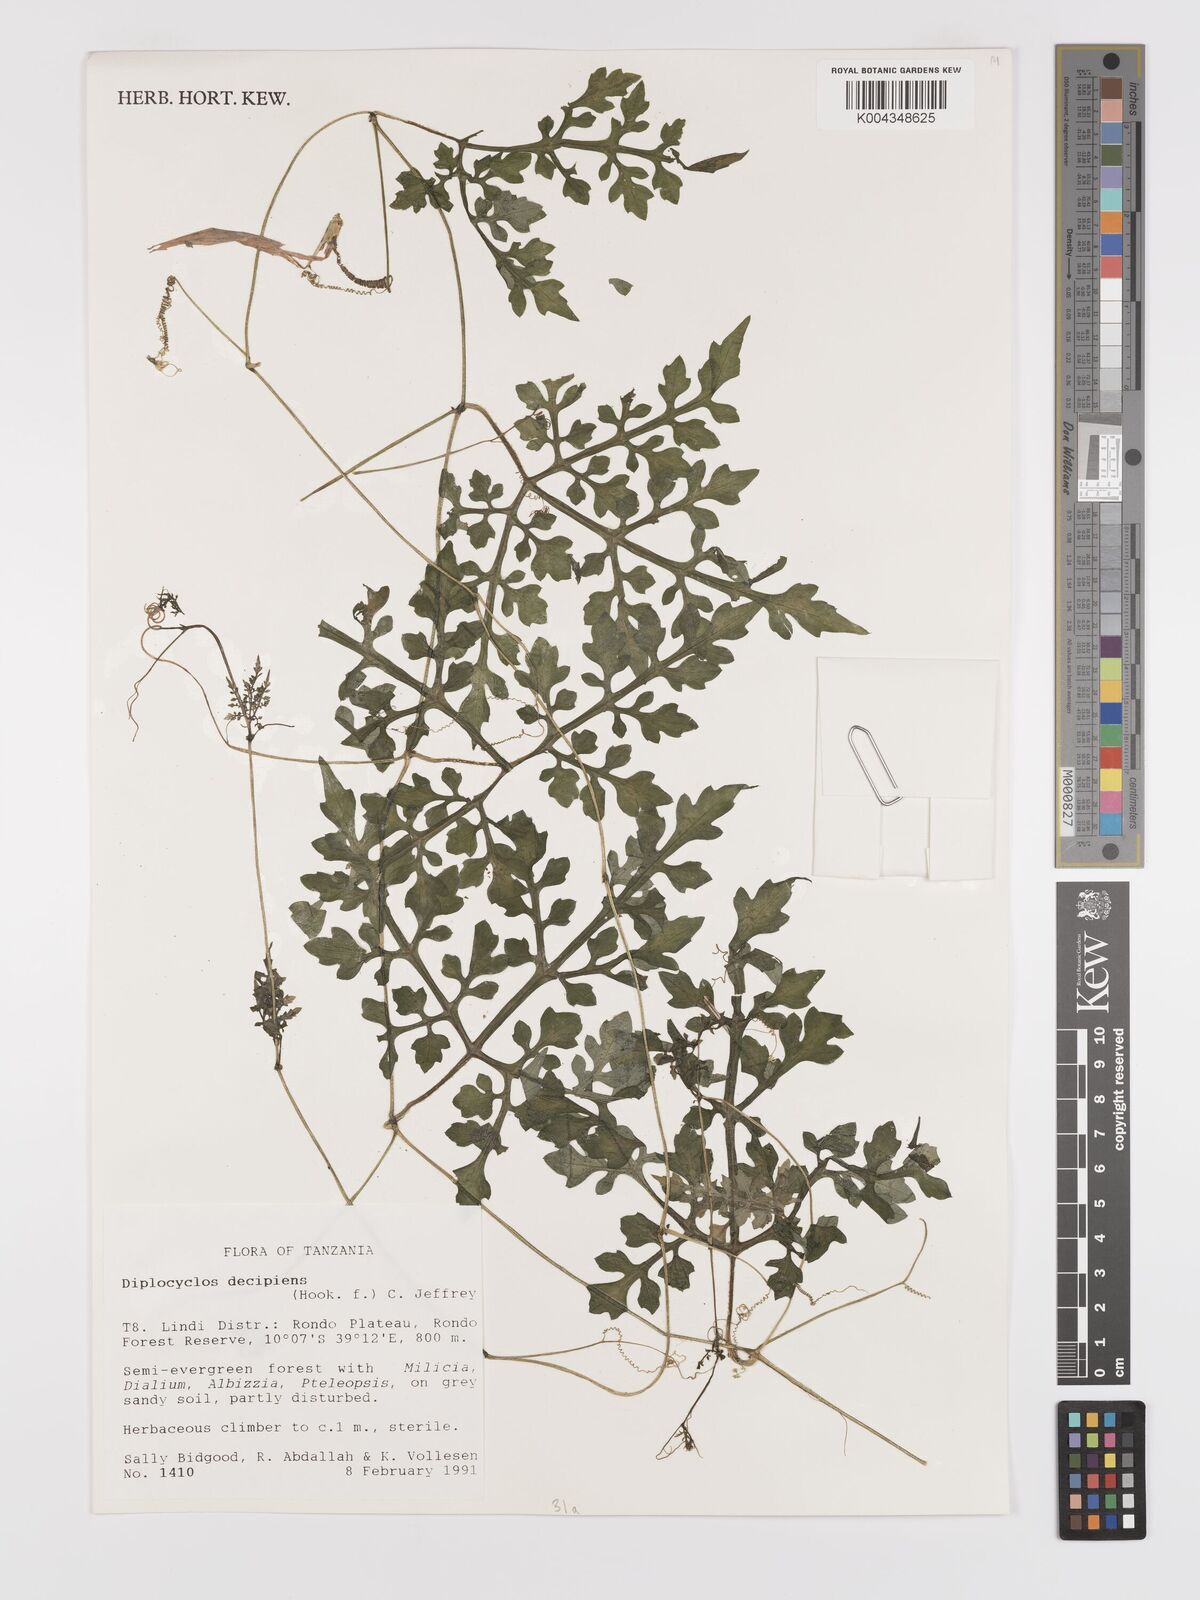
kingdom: Plantae
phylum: Tracheophyta
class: Magnoliopsida
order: Cucurbitales
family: Cucurbitaceae
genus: Diplocyclos
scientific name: Diplocyclos decipiens
